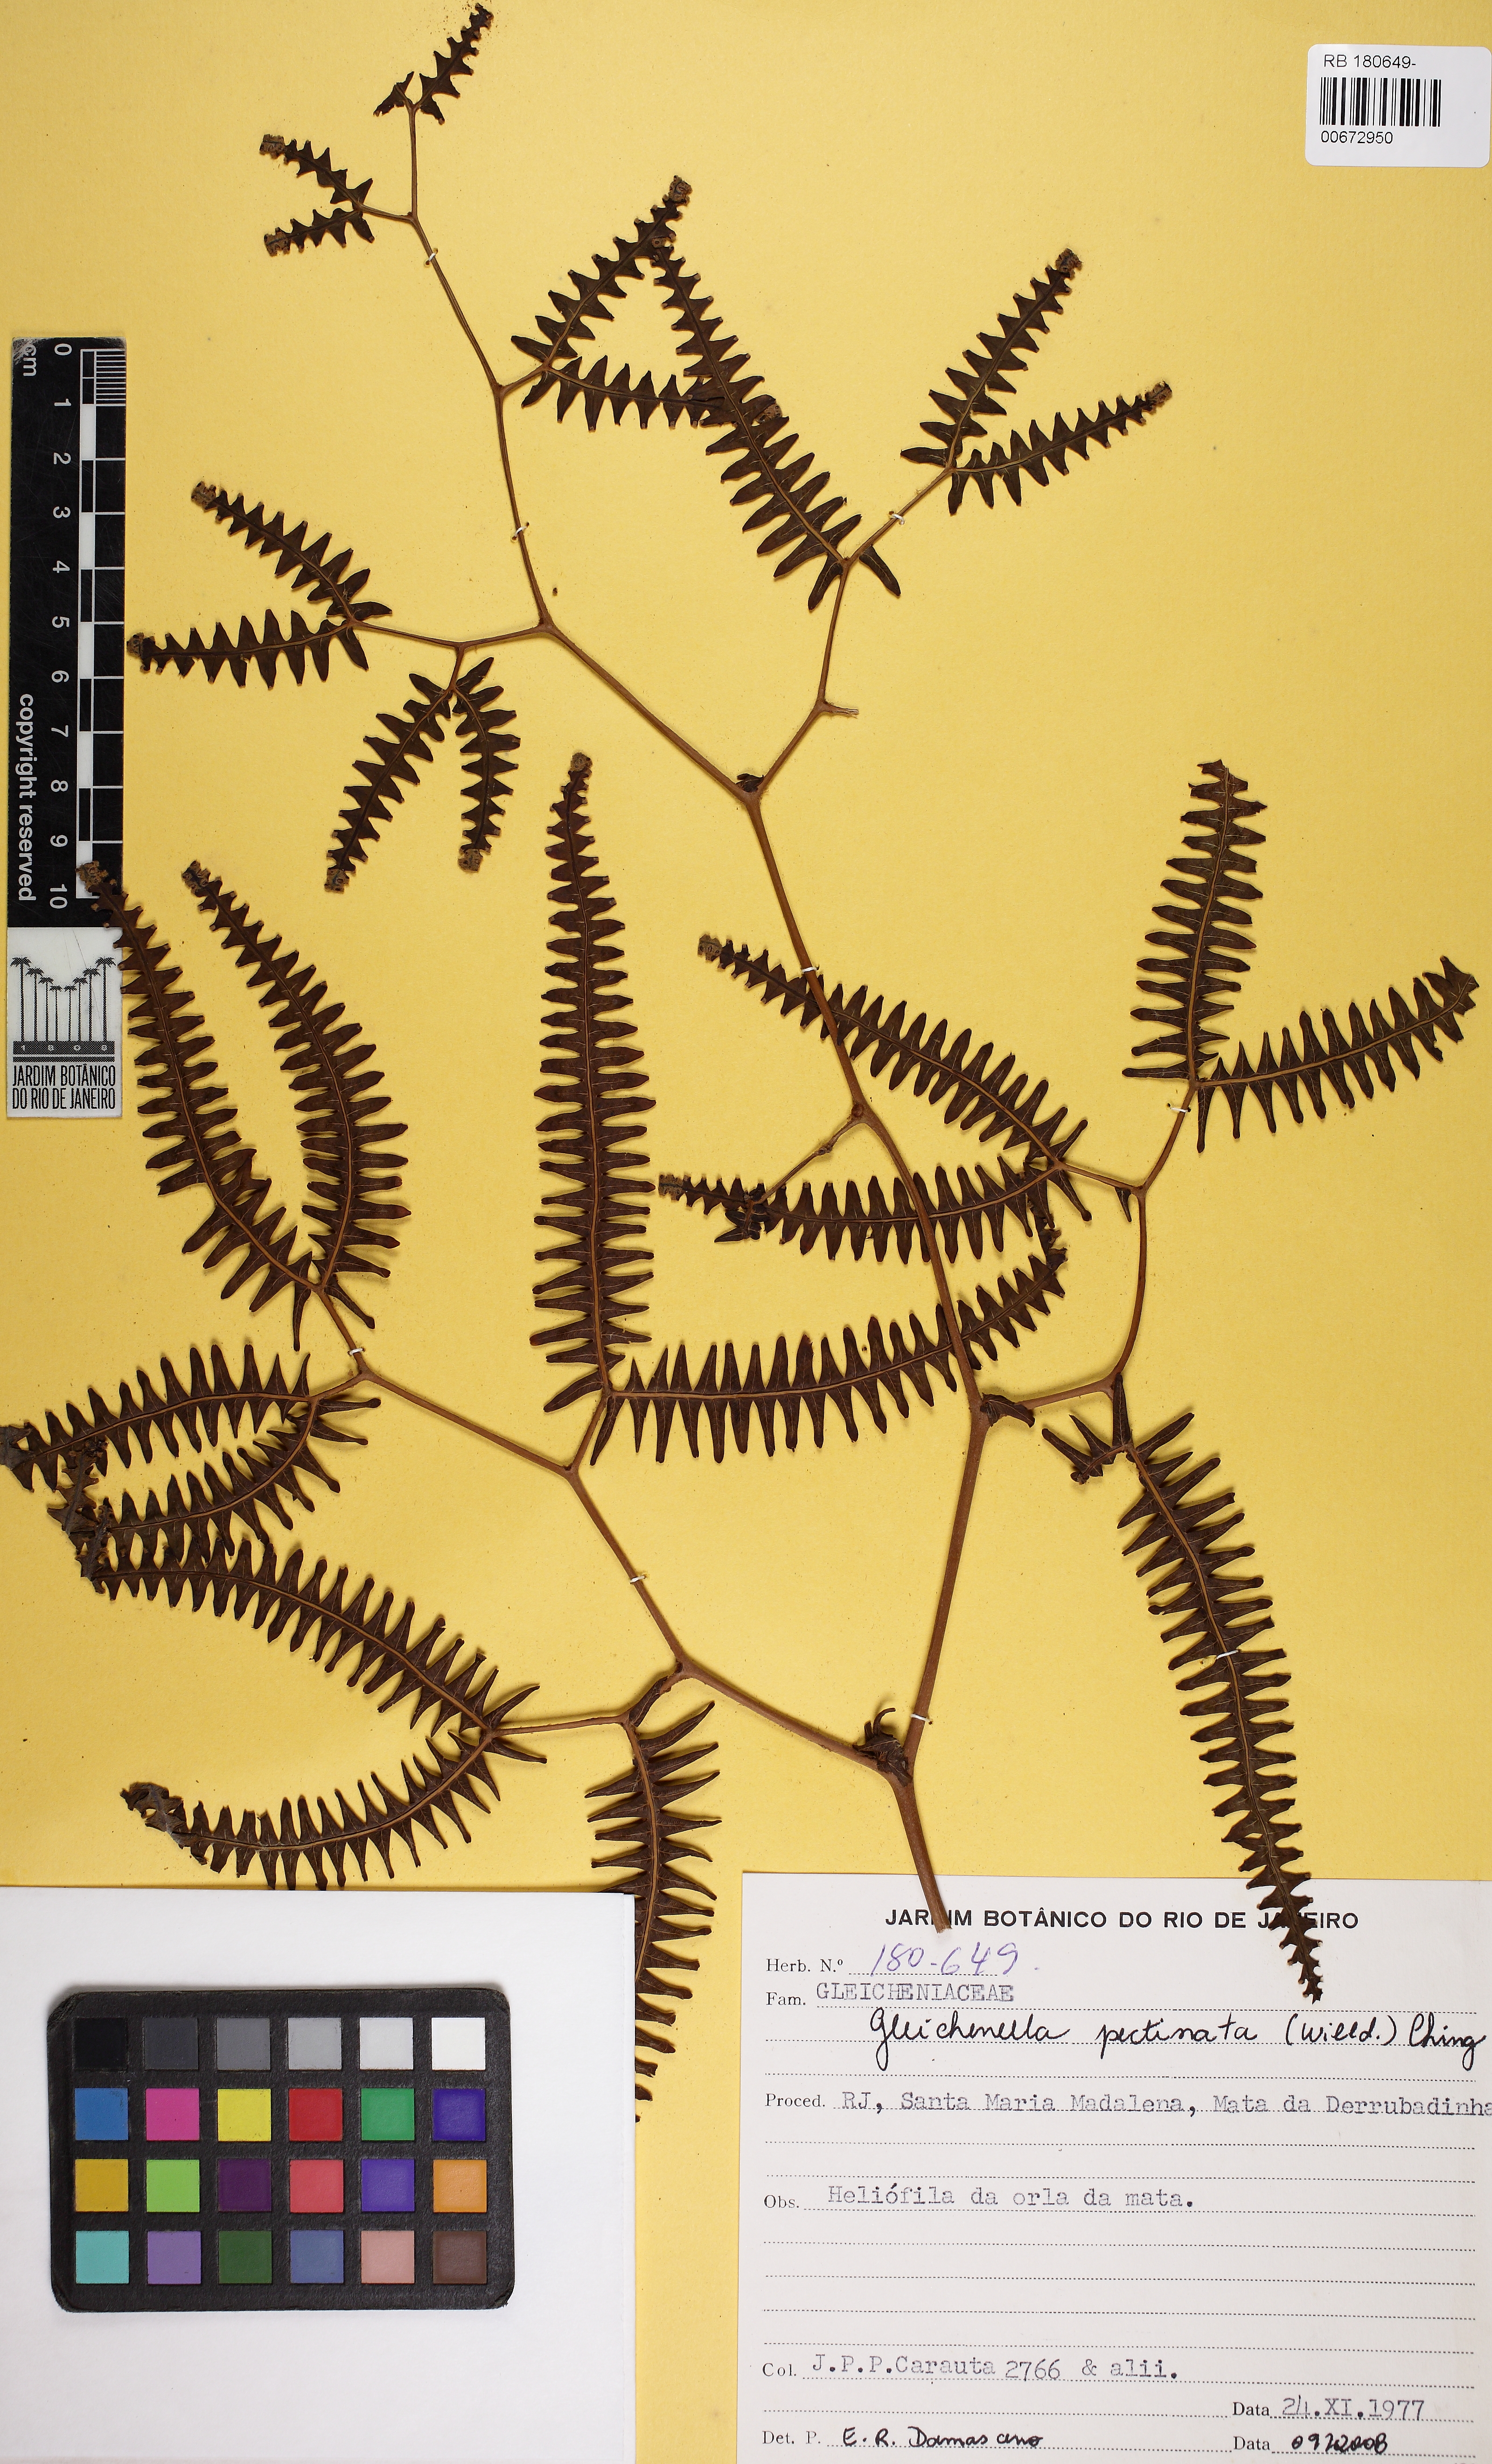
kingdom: Plantae
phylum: Tracheophyta
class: Polypodiopsida
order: Gleicheniales
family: Gleicheniaceae
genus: Gleichenella
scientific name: Gleichenella pectinata
